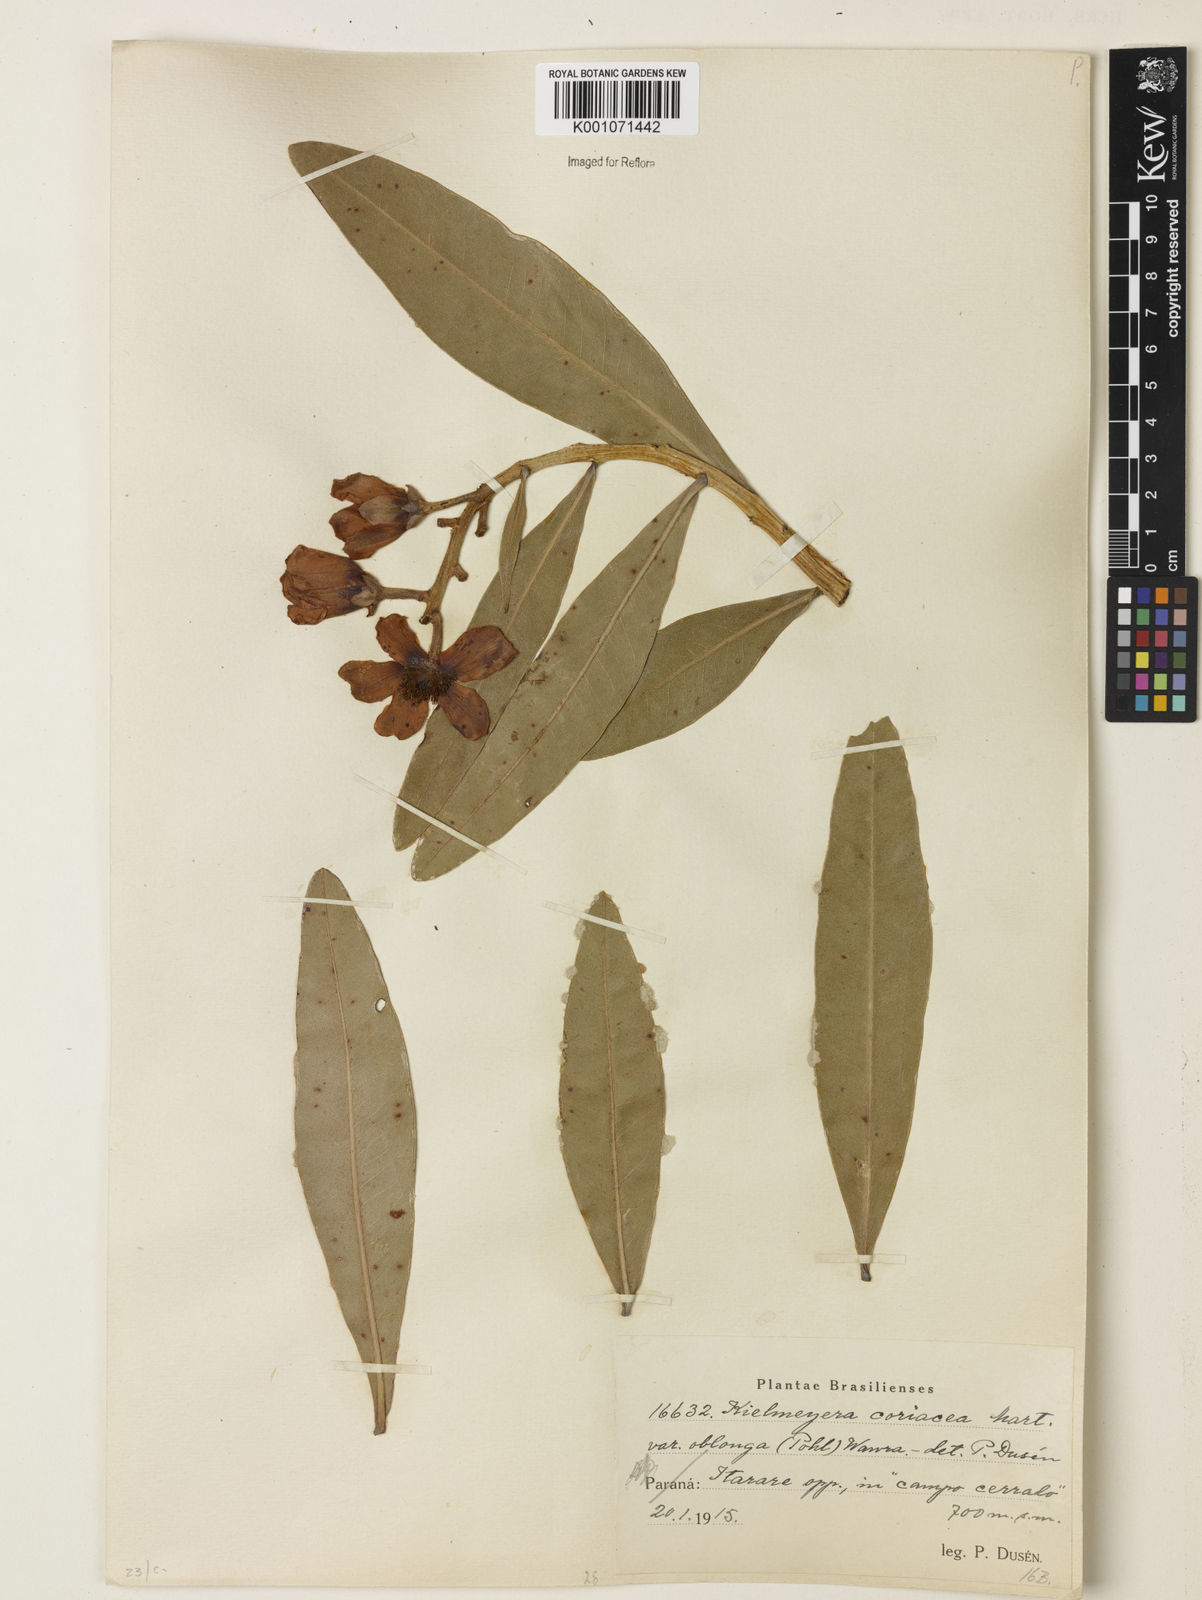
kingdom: Plantae
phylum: Tracheophyta
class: Magnoliopsida
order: Malpighiales
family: Calophyllaceae
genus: Kielmeyera
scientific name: Kielmeyera coriacea
